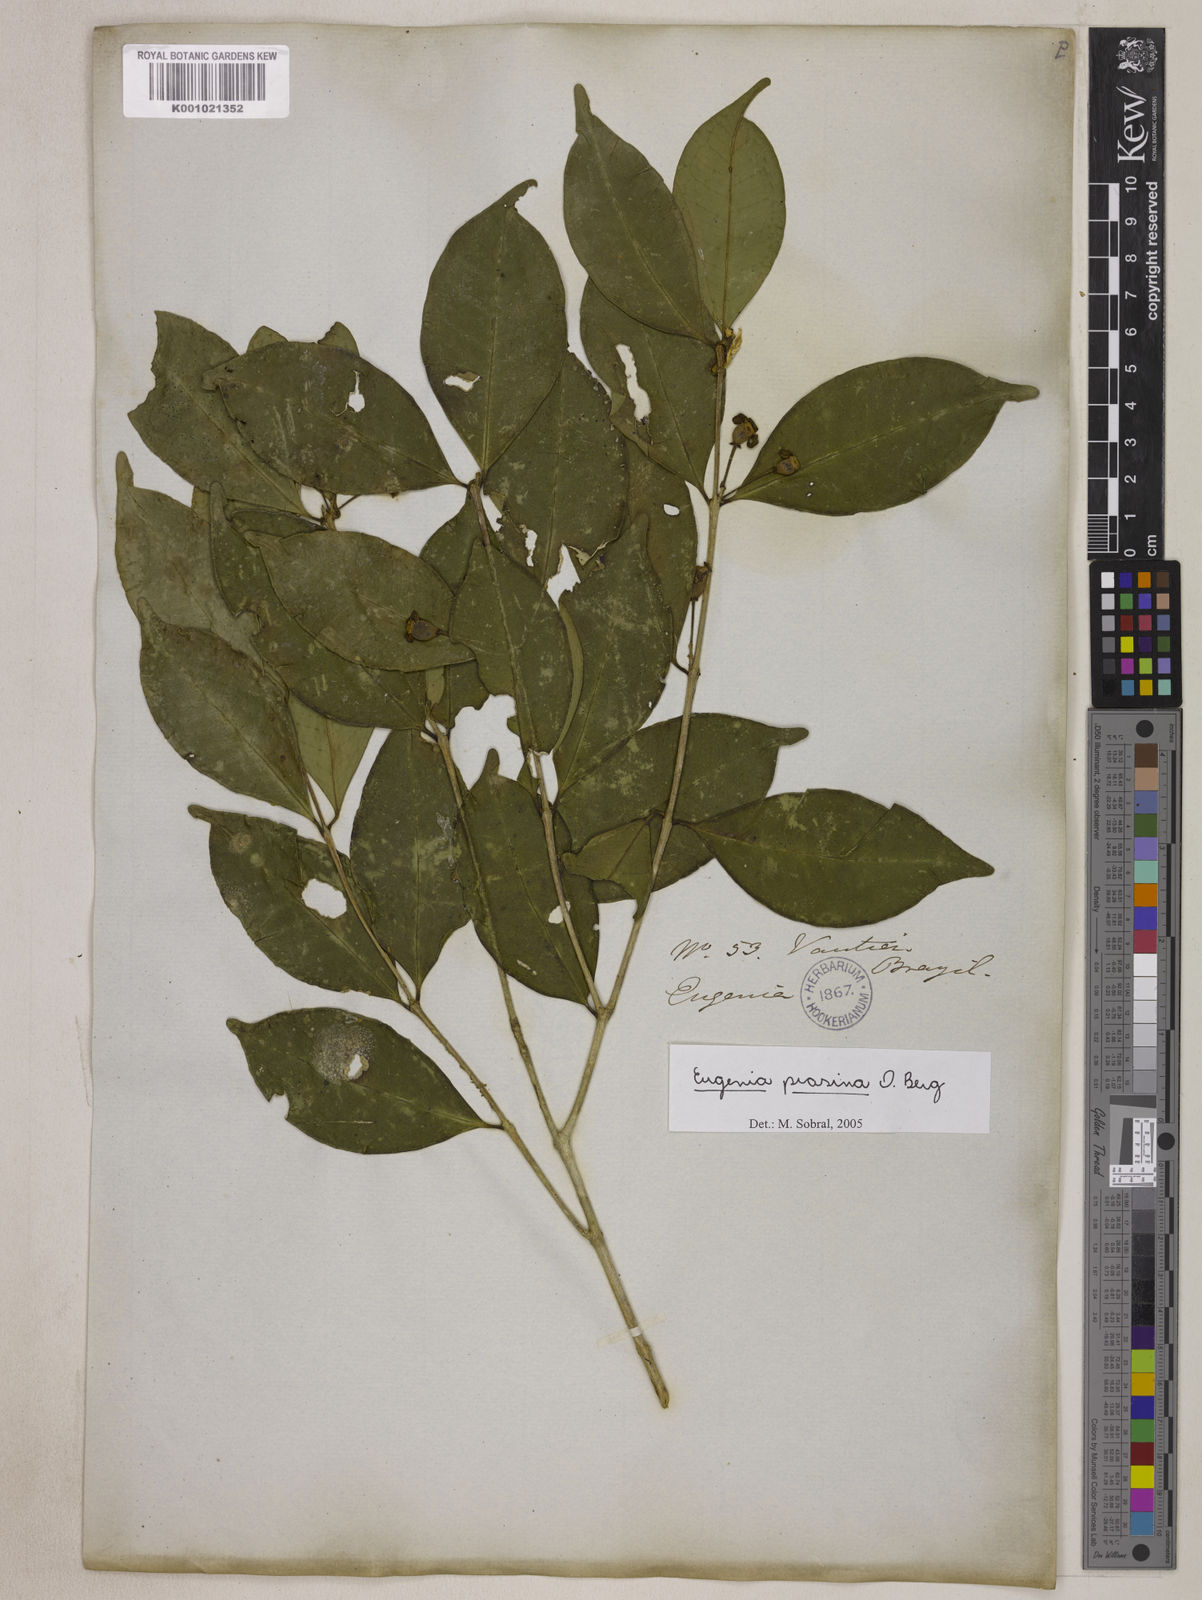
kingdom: Plantae
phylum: Tracheophyta
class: Magnoliopsida
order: Myrtales
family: Myrtaceae
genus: Eugenia
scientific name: Eugenia prasina
